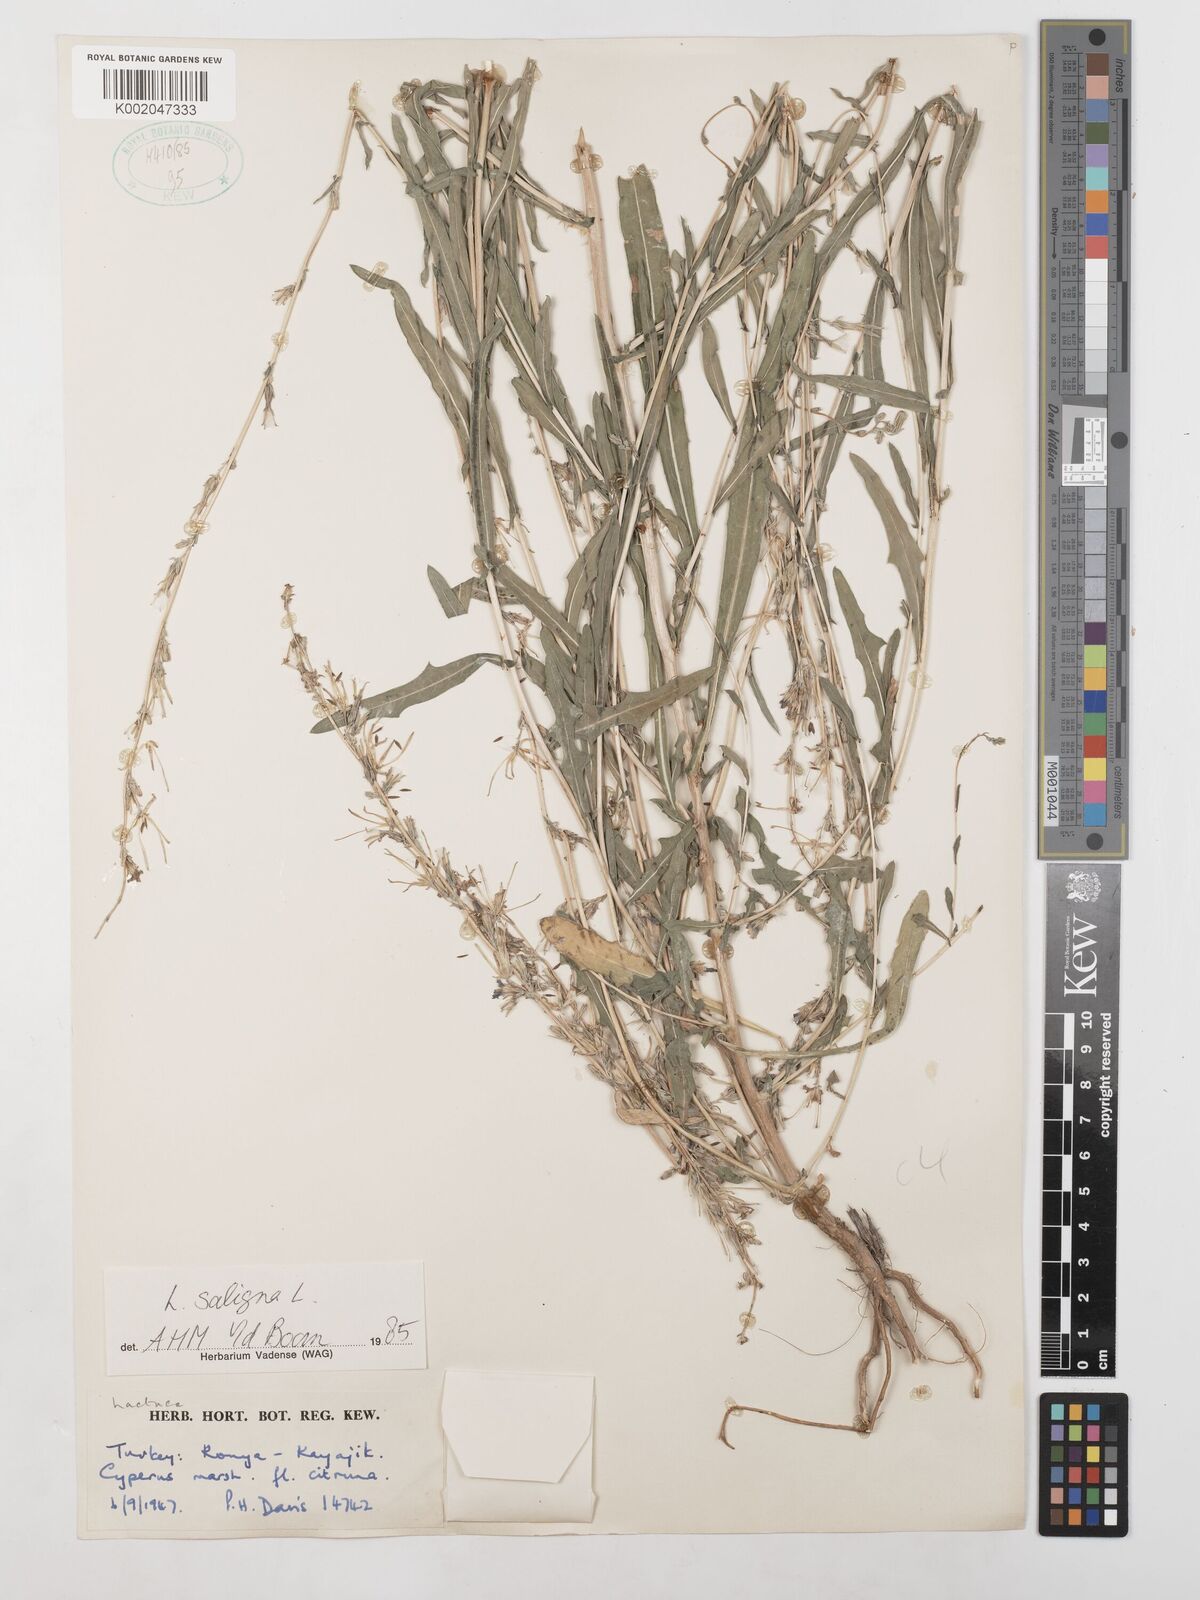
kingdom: Plantae
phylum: Tracheophyta
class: Magnoliopsida
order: Asterales
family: Asteraceae
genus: Lactuca
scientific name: Lactuca saligna
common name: Wild lettuce
